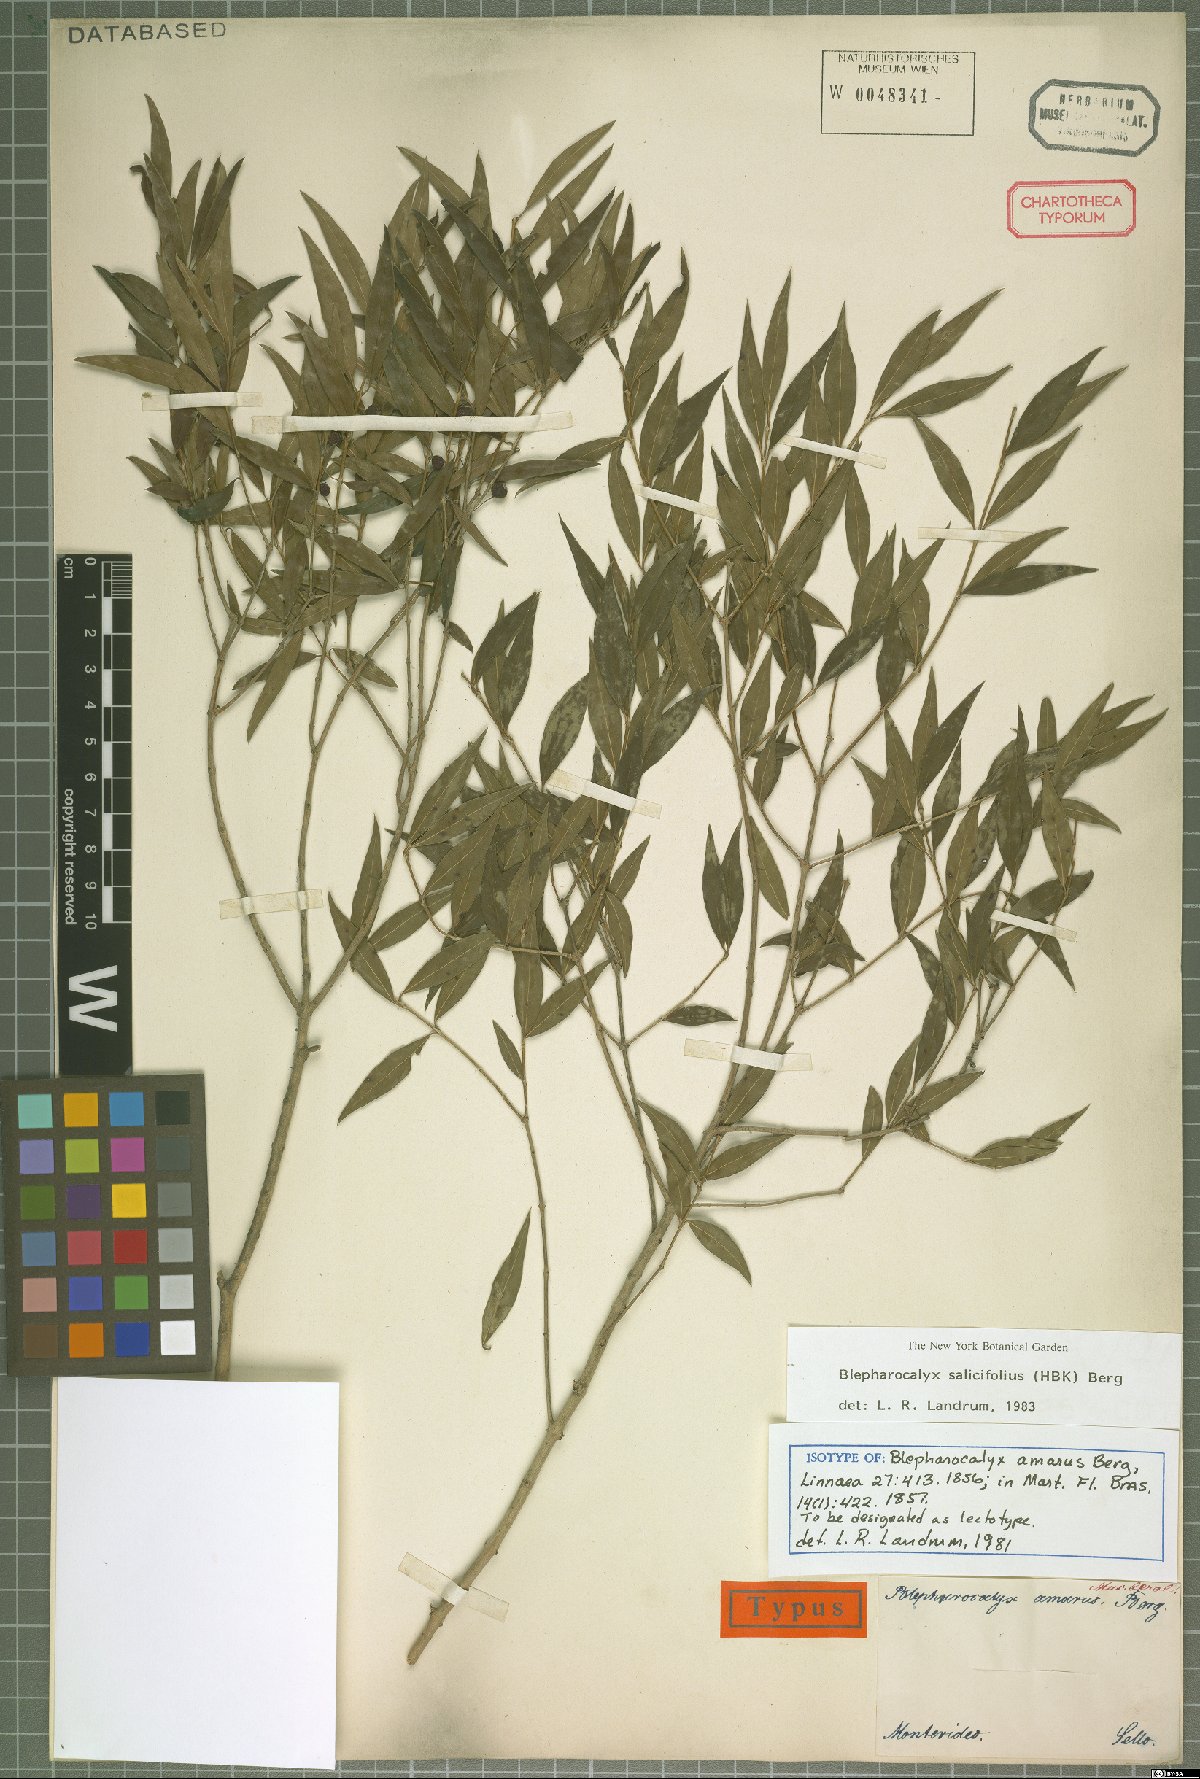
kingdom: Plantae
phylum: Tracheophyta
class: Magnoliopsida
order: Myrtales
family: Myrtaceae
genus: Blepharocalyx
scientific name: Blepharocalyx salicifolius
